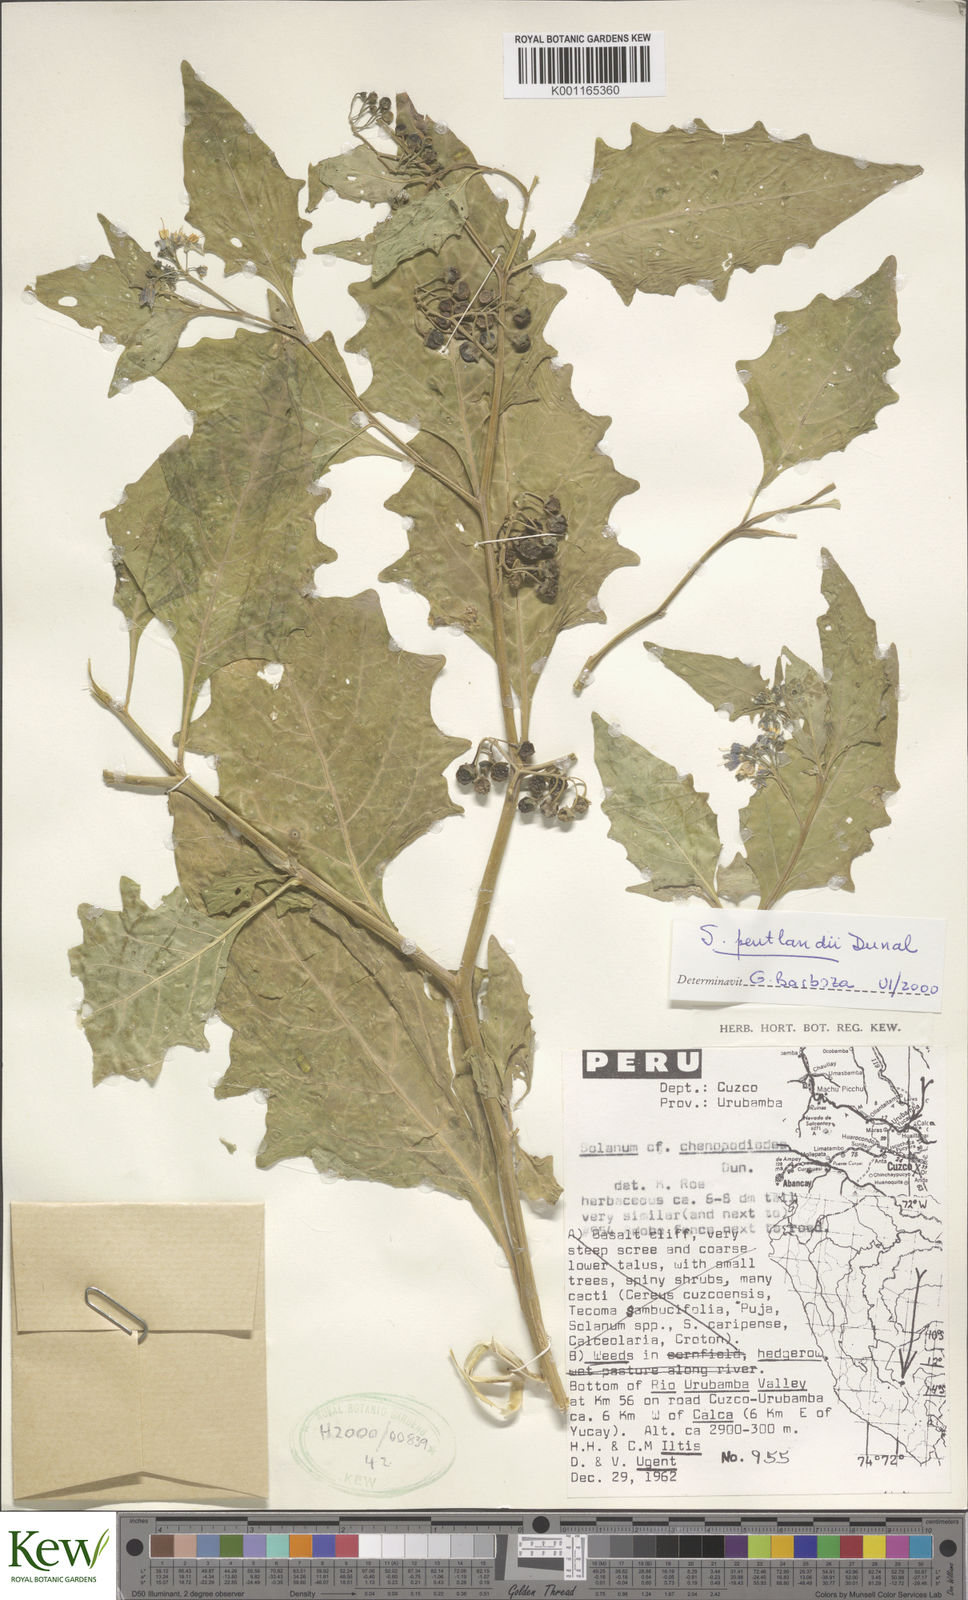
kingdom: Plantae
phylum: Tracheophyta
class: Magnoliopsida
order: Solanales
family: Solanaceae
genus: Solanum
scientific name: Solanum pentlandii
